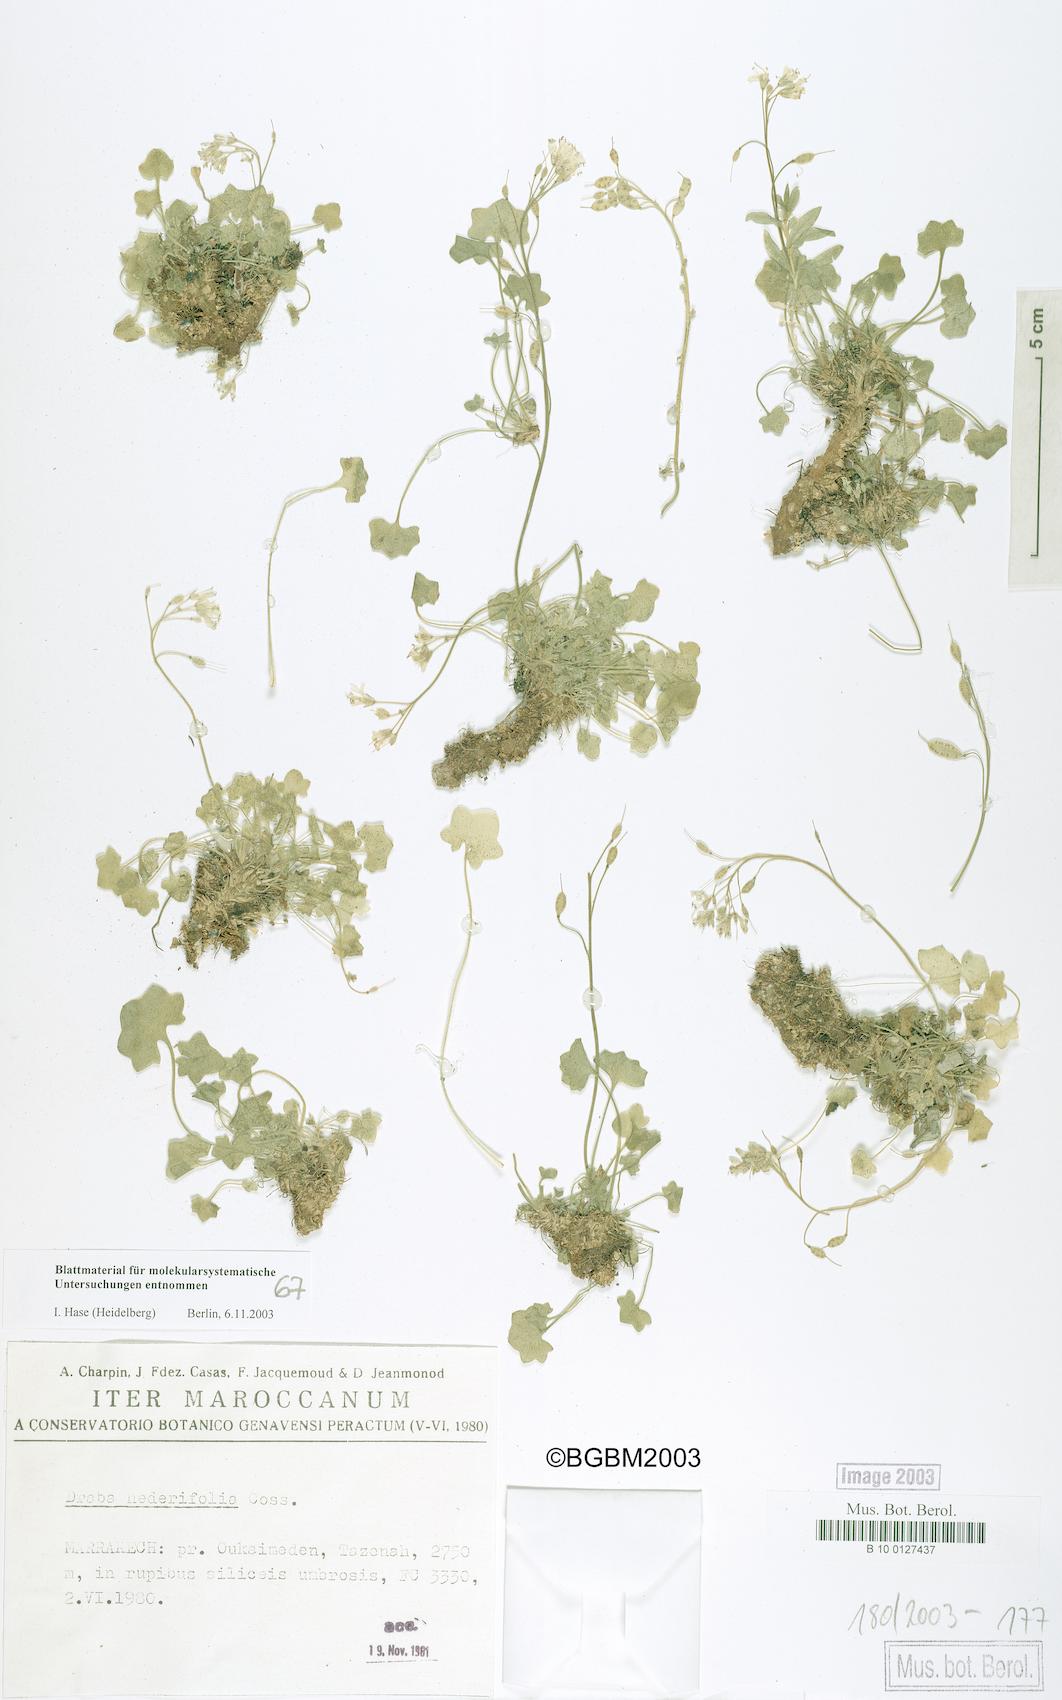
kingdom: Plantae
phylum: Tracheophyta
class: Magnoliopsida
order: Brassicales
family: Brassicaceae
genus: Draba
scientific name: Draba hederifolia
